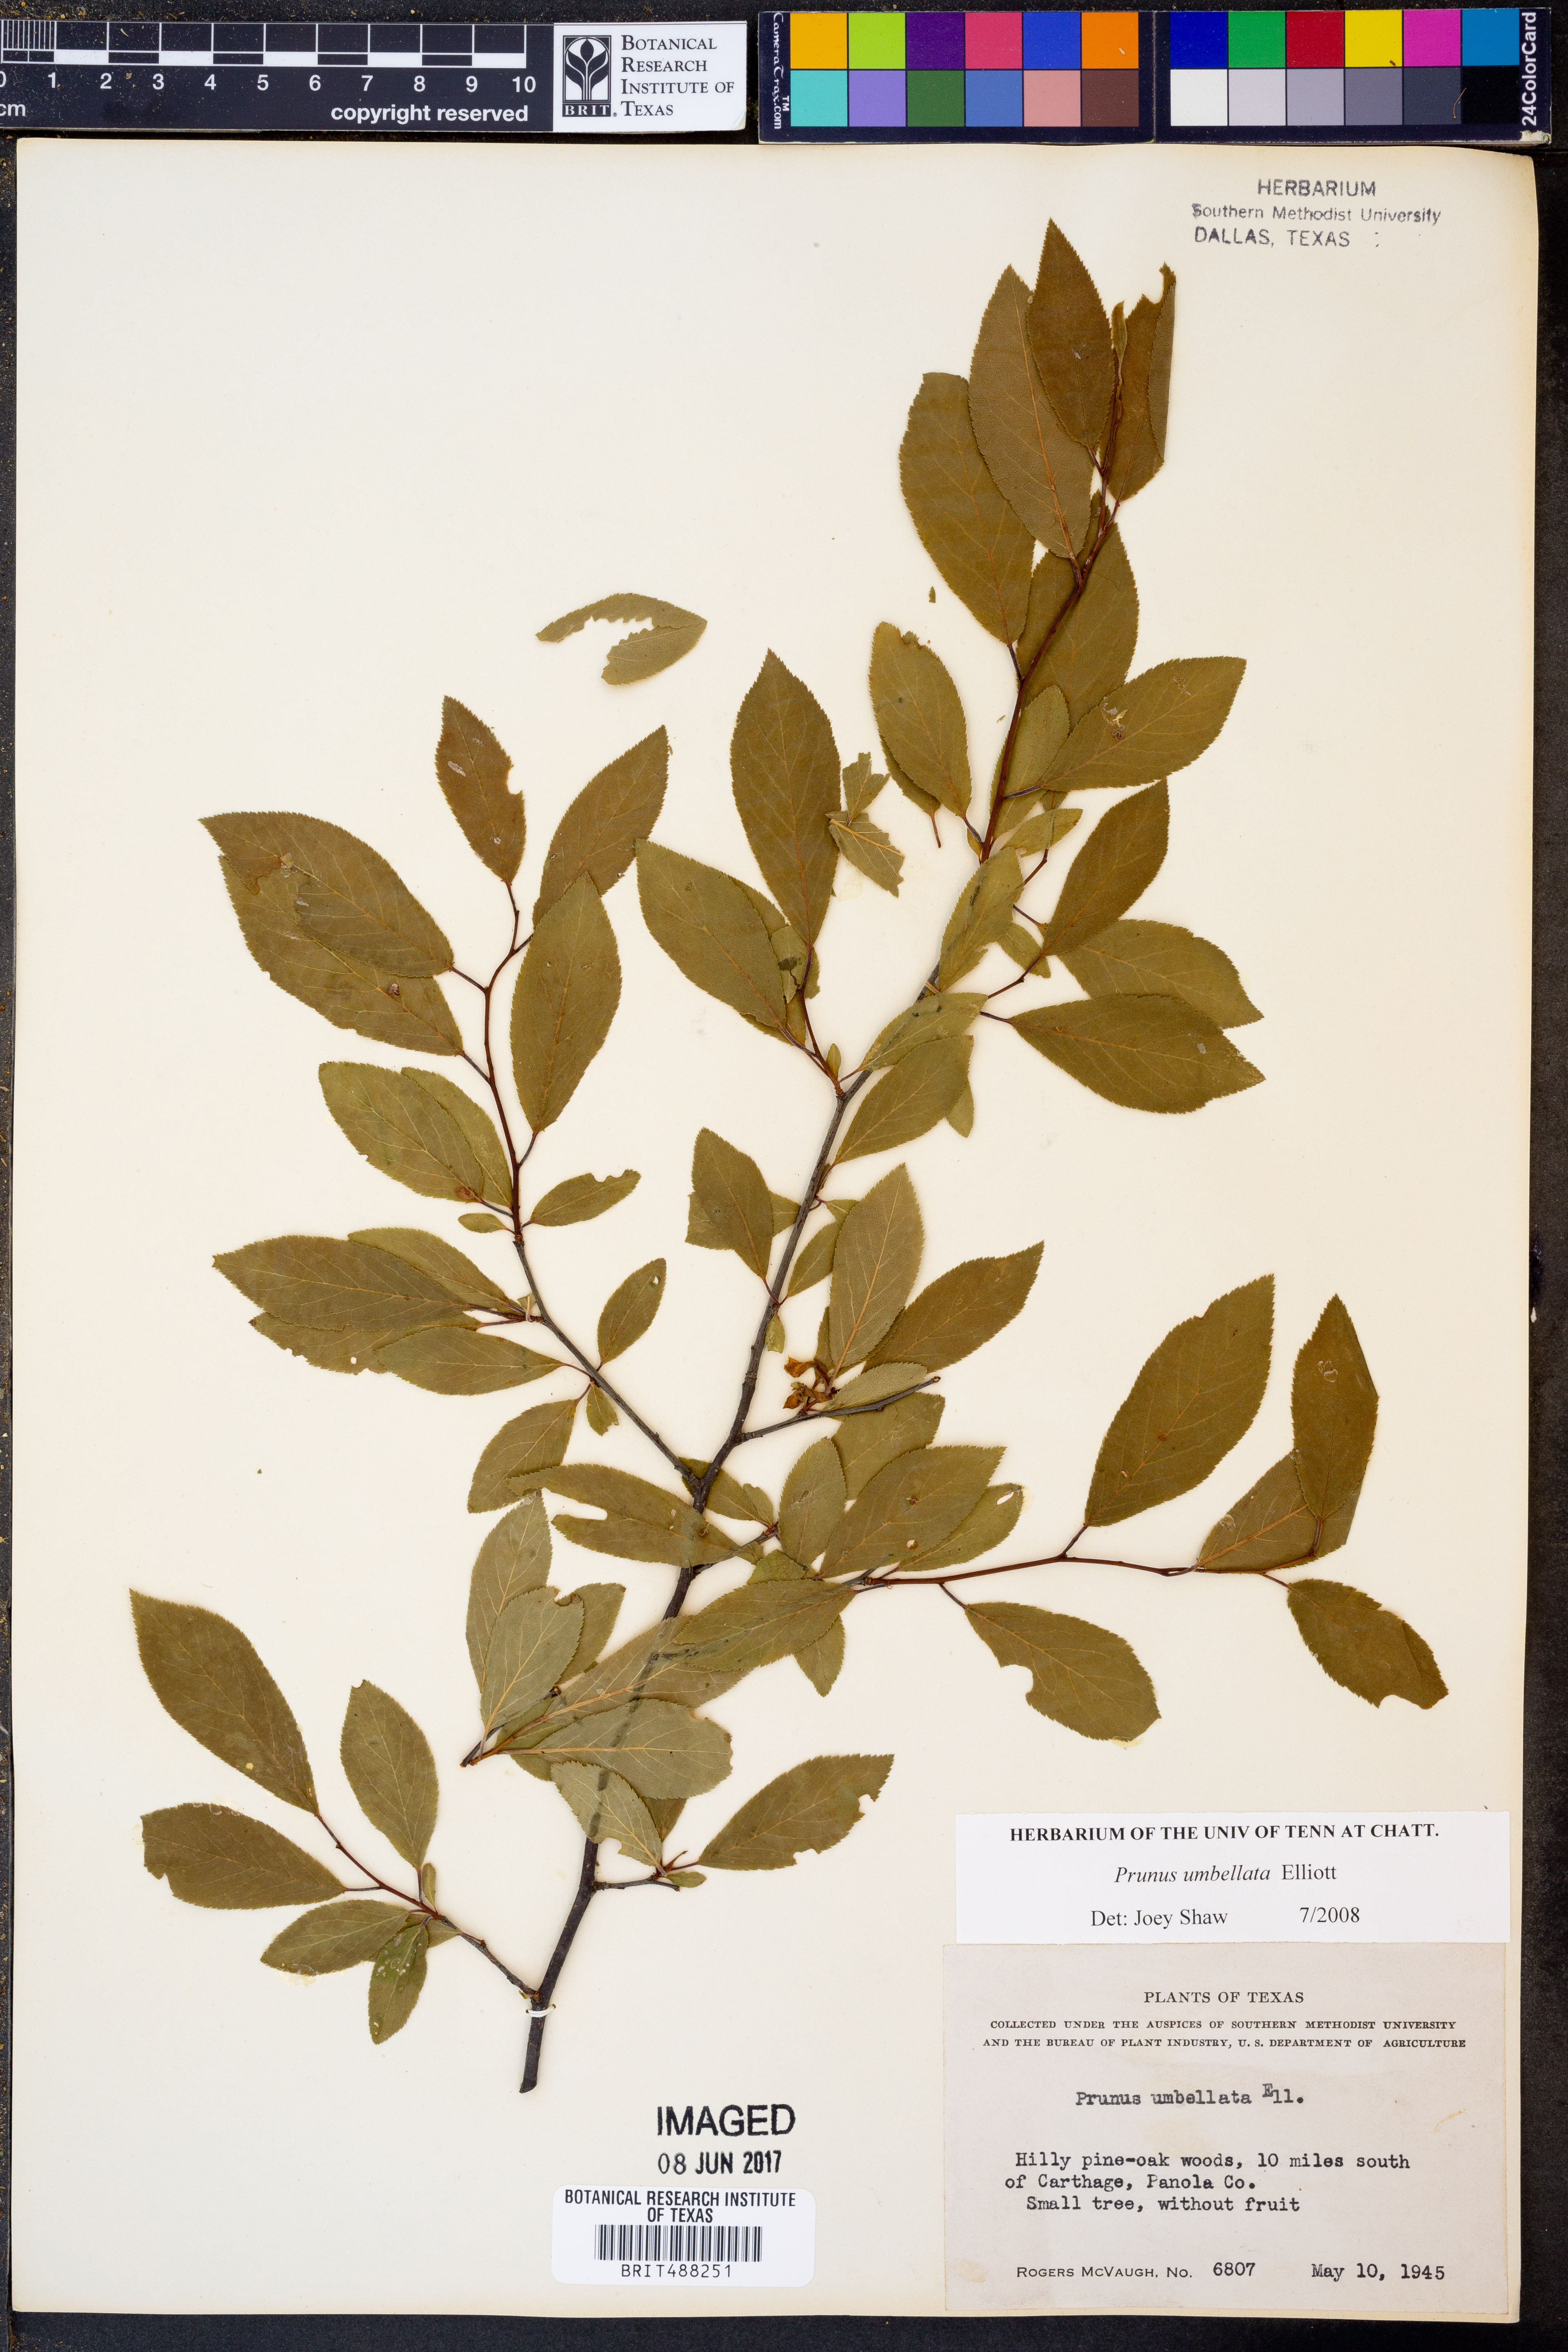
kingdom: Plantae
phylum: Tracheophyta
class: Magnoliopsida
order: Rosales
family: Rosaceae
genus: Prunus
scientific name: Prunus umbellata
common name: Allegheny plum
